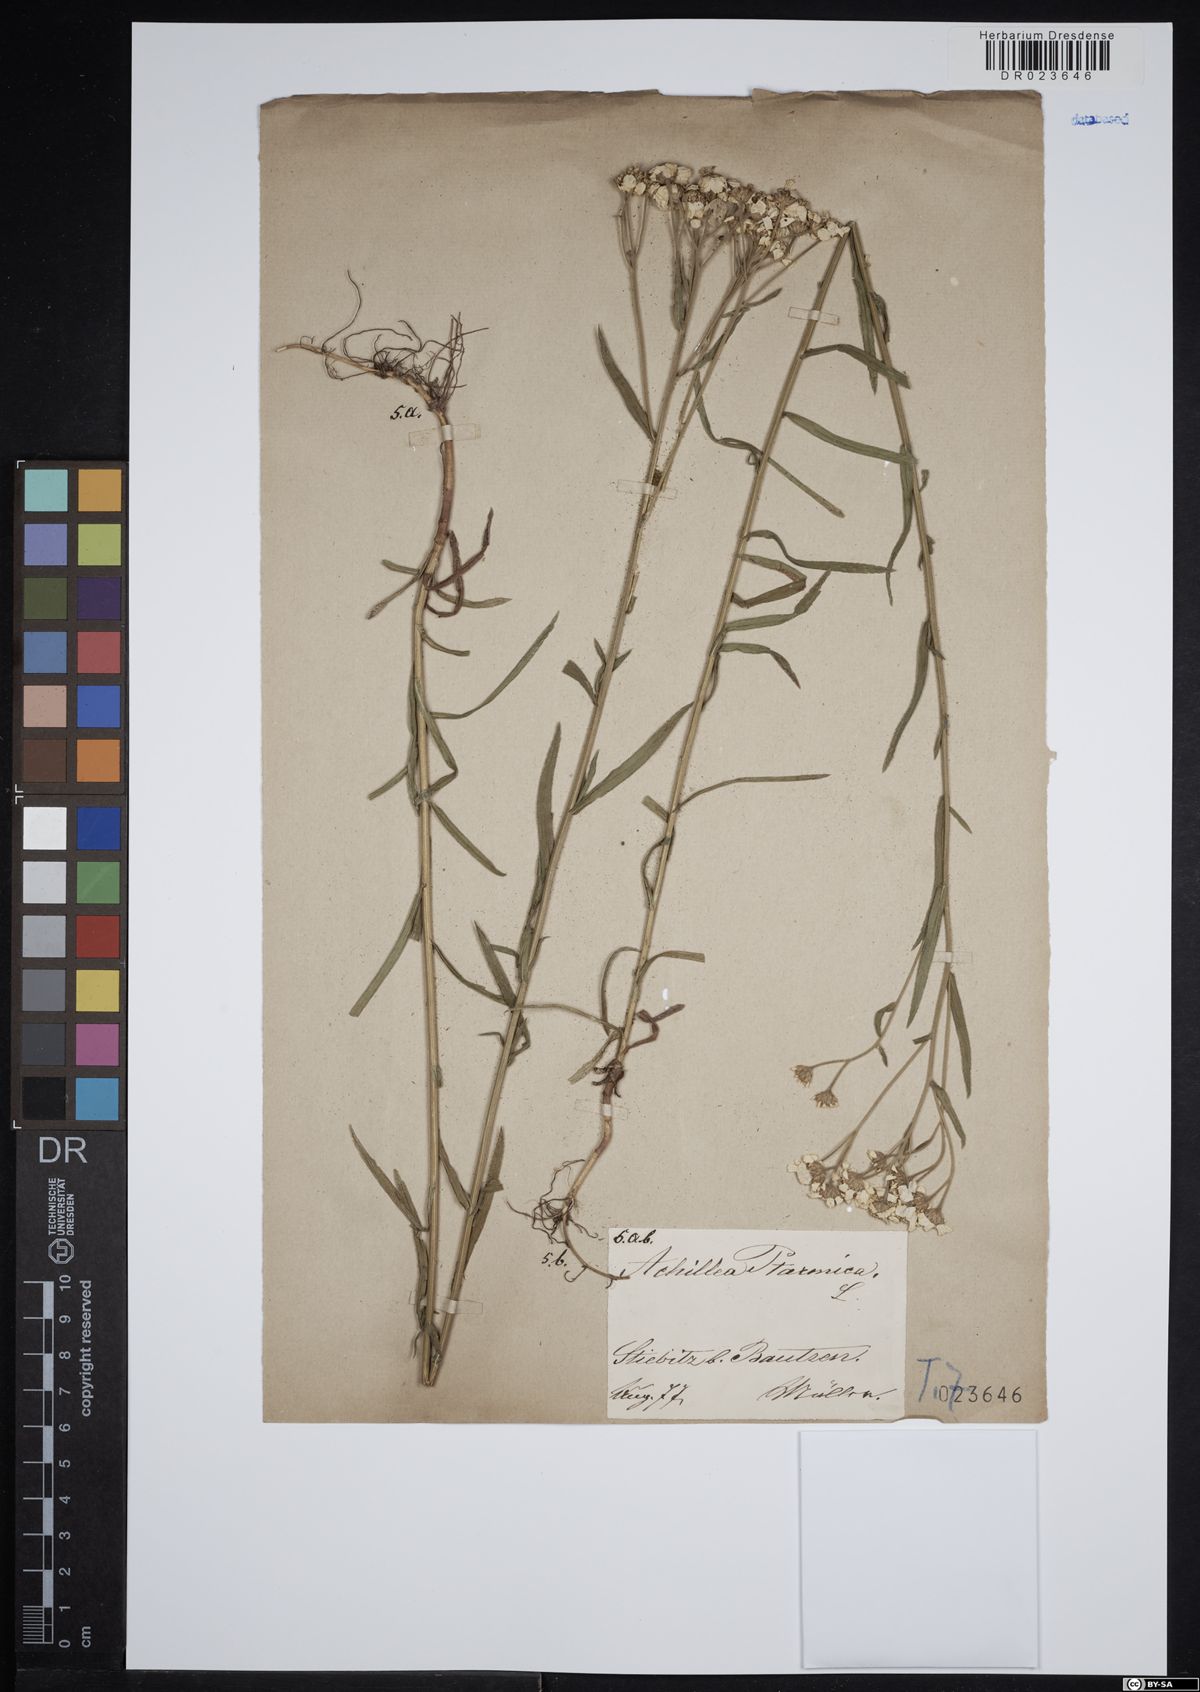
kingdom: Plantae
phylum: Tracheophyta
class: Magnoliopsida
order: Asterales
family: Asteraceae
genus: Achillea
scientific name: Achillea ptarmica
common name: Sneezeweed
